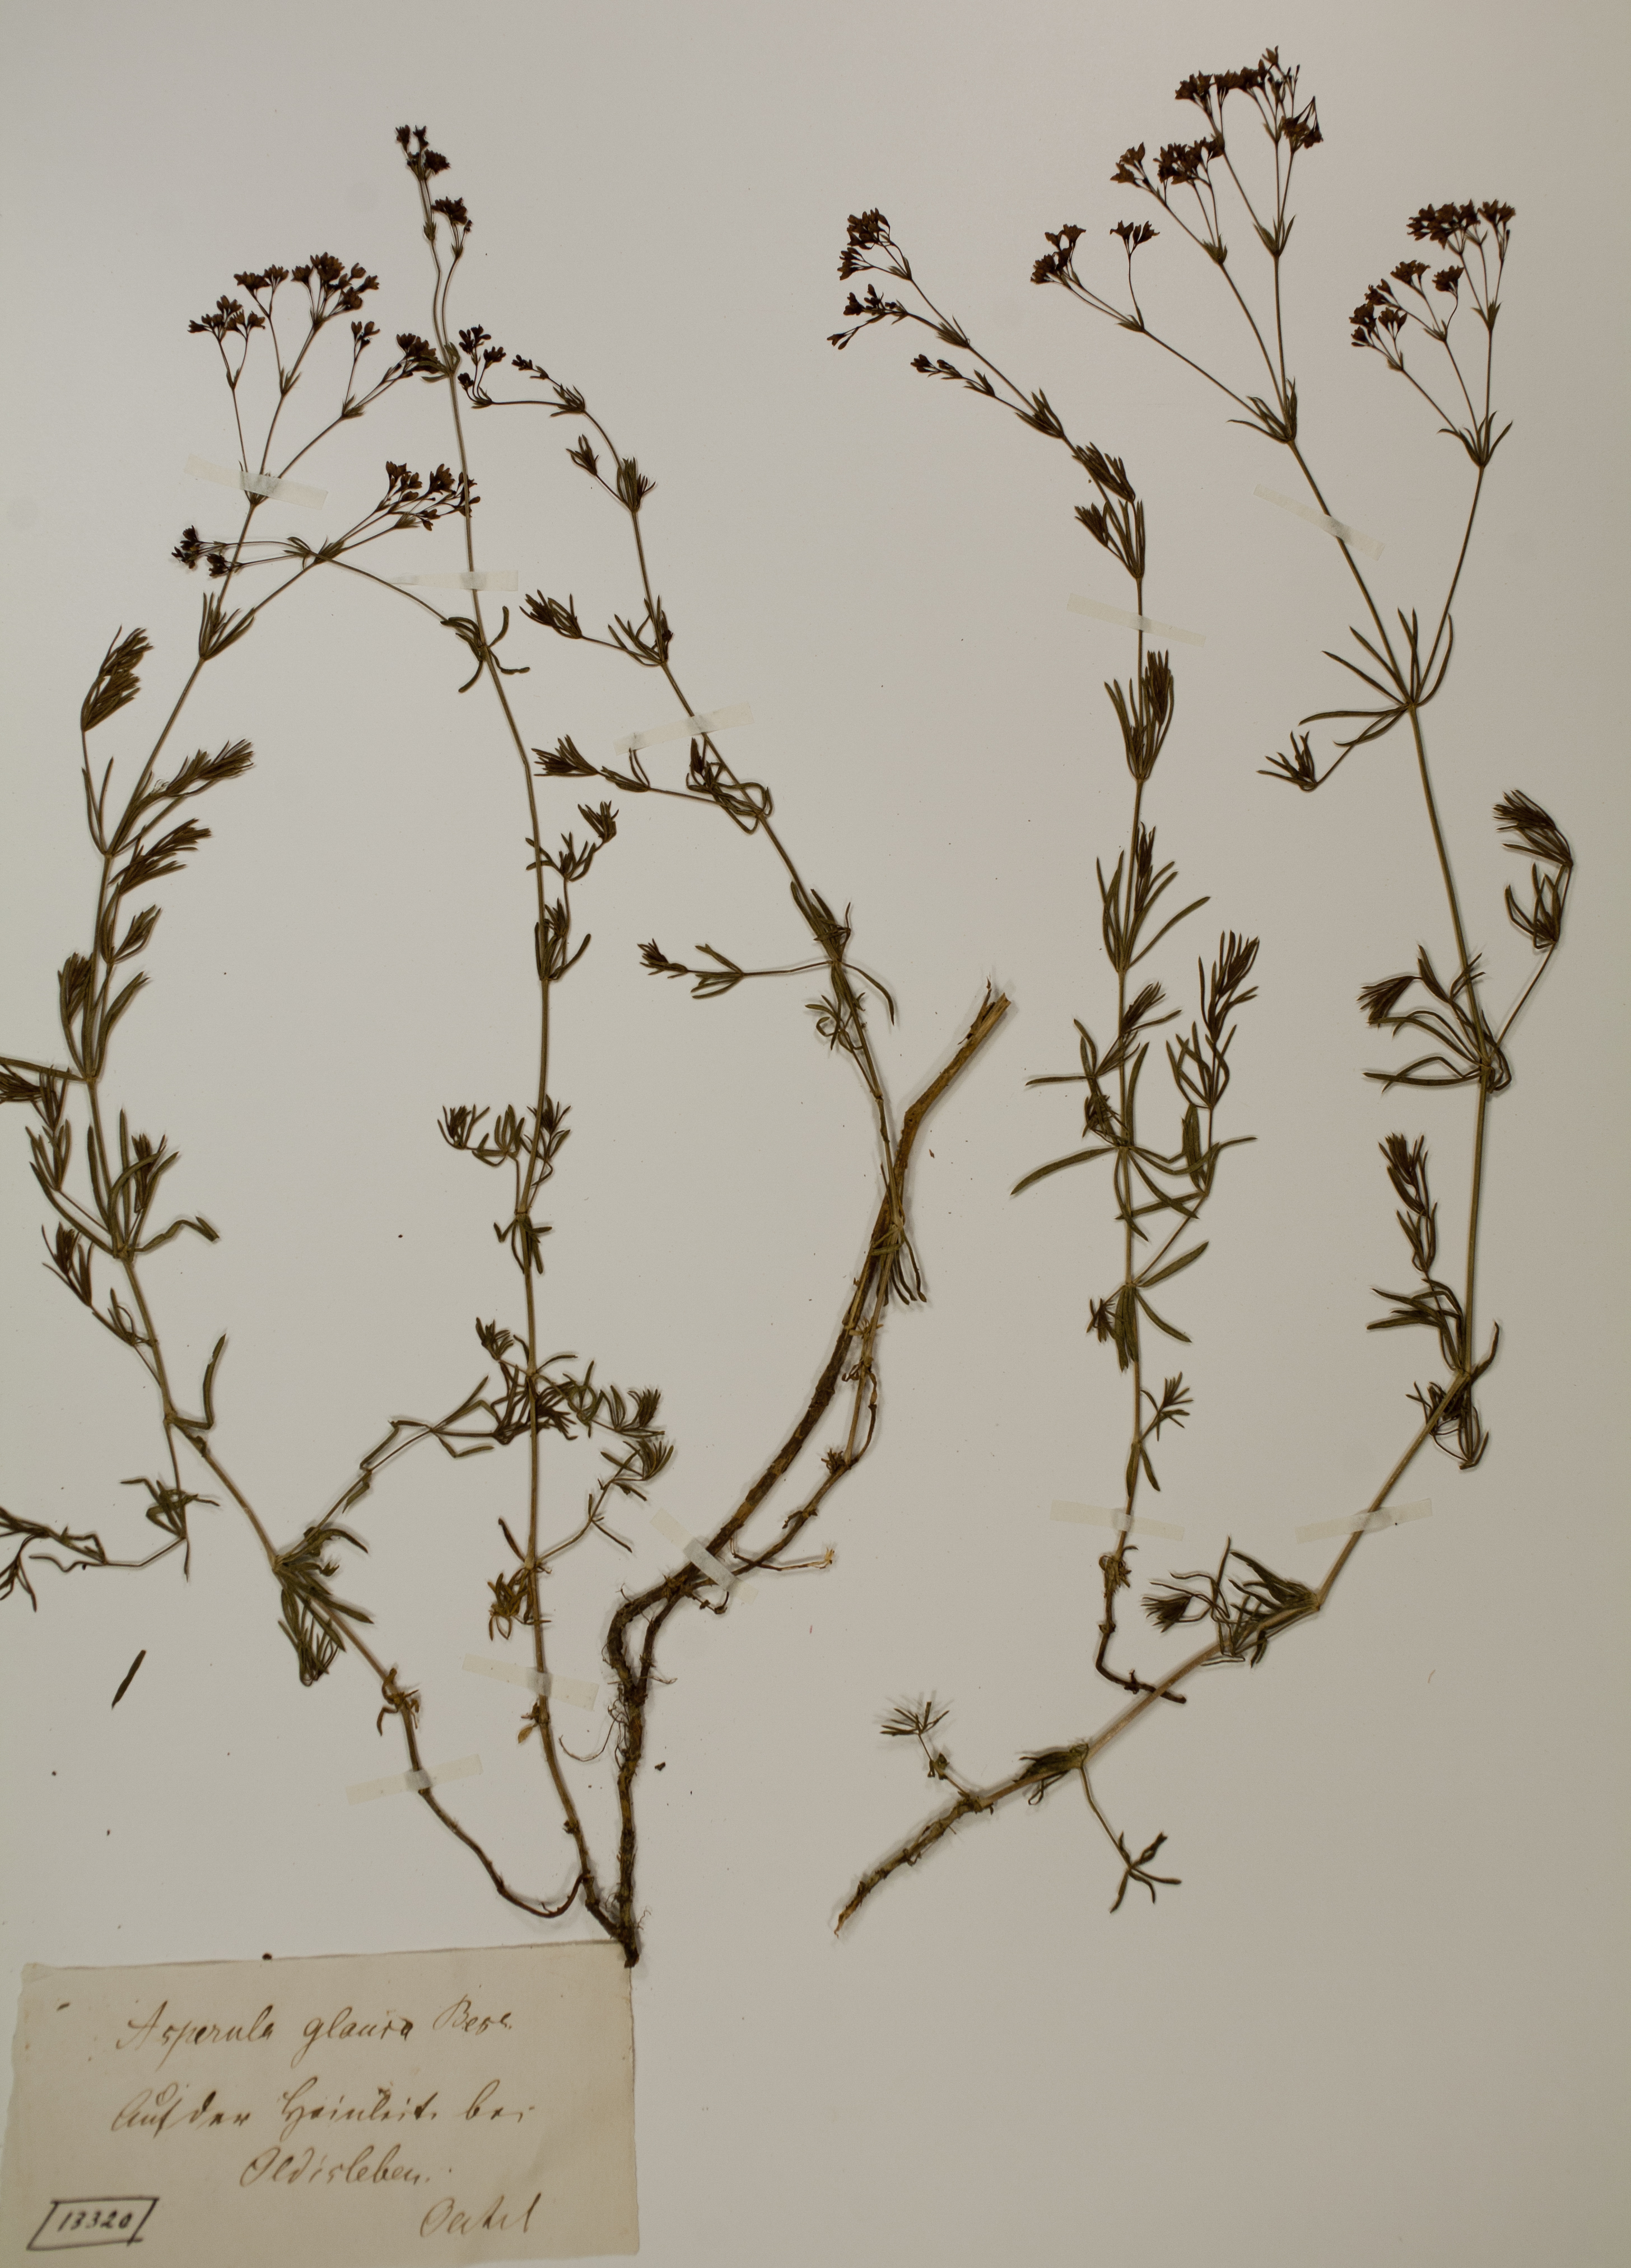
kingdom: Plantae
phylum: Tracheophyta
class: Magnoliopsida
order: Gentianales
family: Rubiaceae
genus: Galium
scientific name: Galium glaucum
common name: Waxy bedstraw
